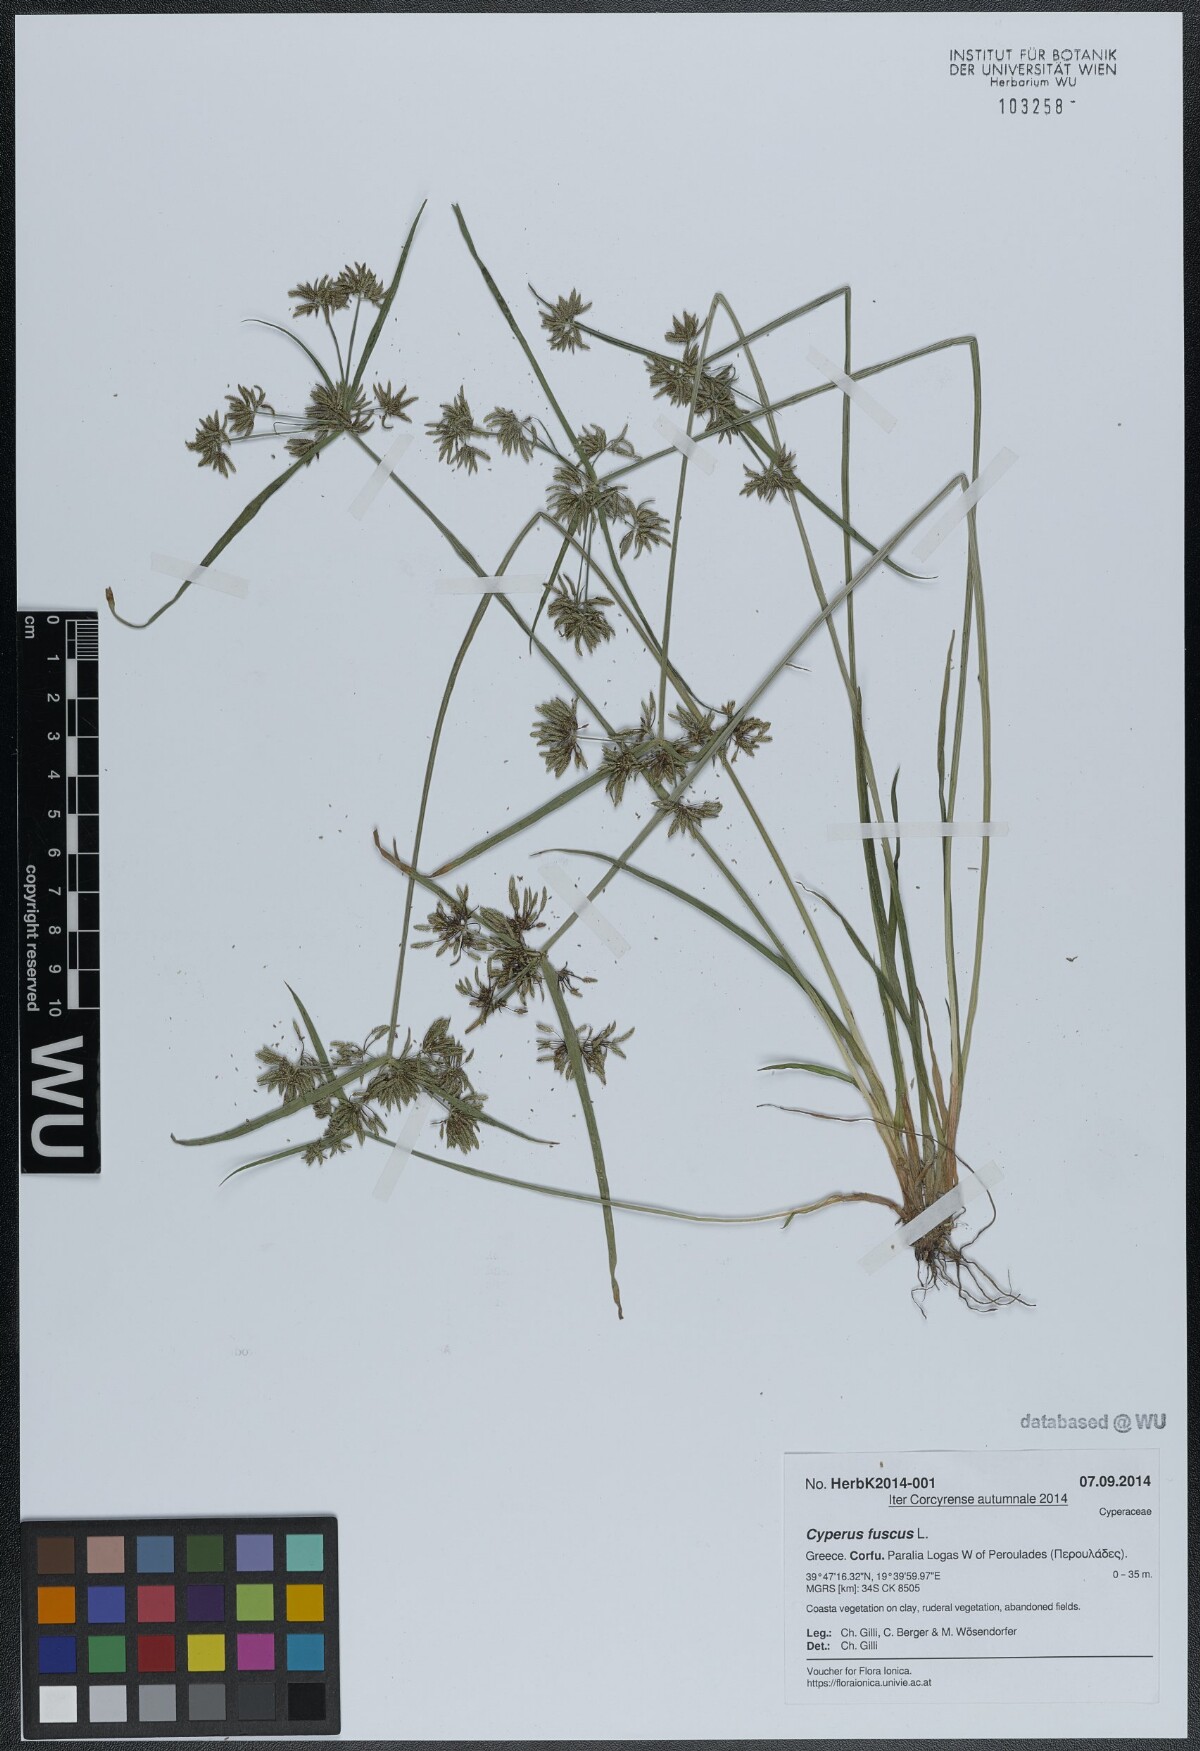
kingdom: Plantae
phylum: Tracheophyta
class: Liliopsida
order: Poales
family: Cyperaceae
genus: Cyperus
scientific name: Cyperus fuscus
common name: Brown galingale
